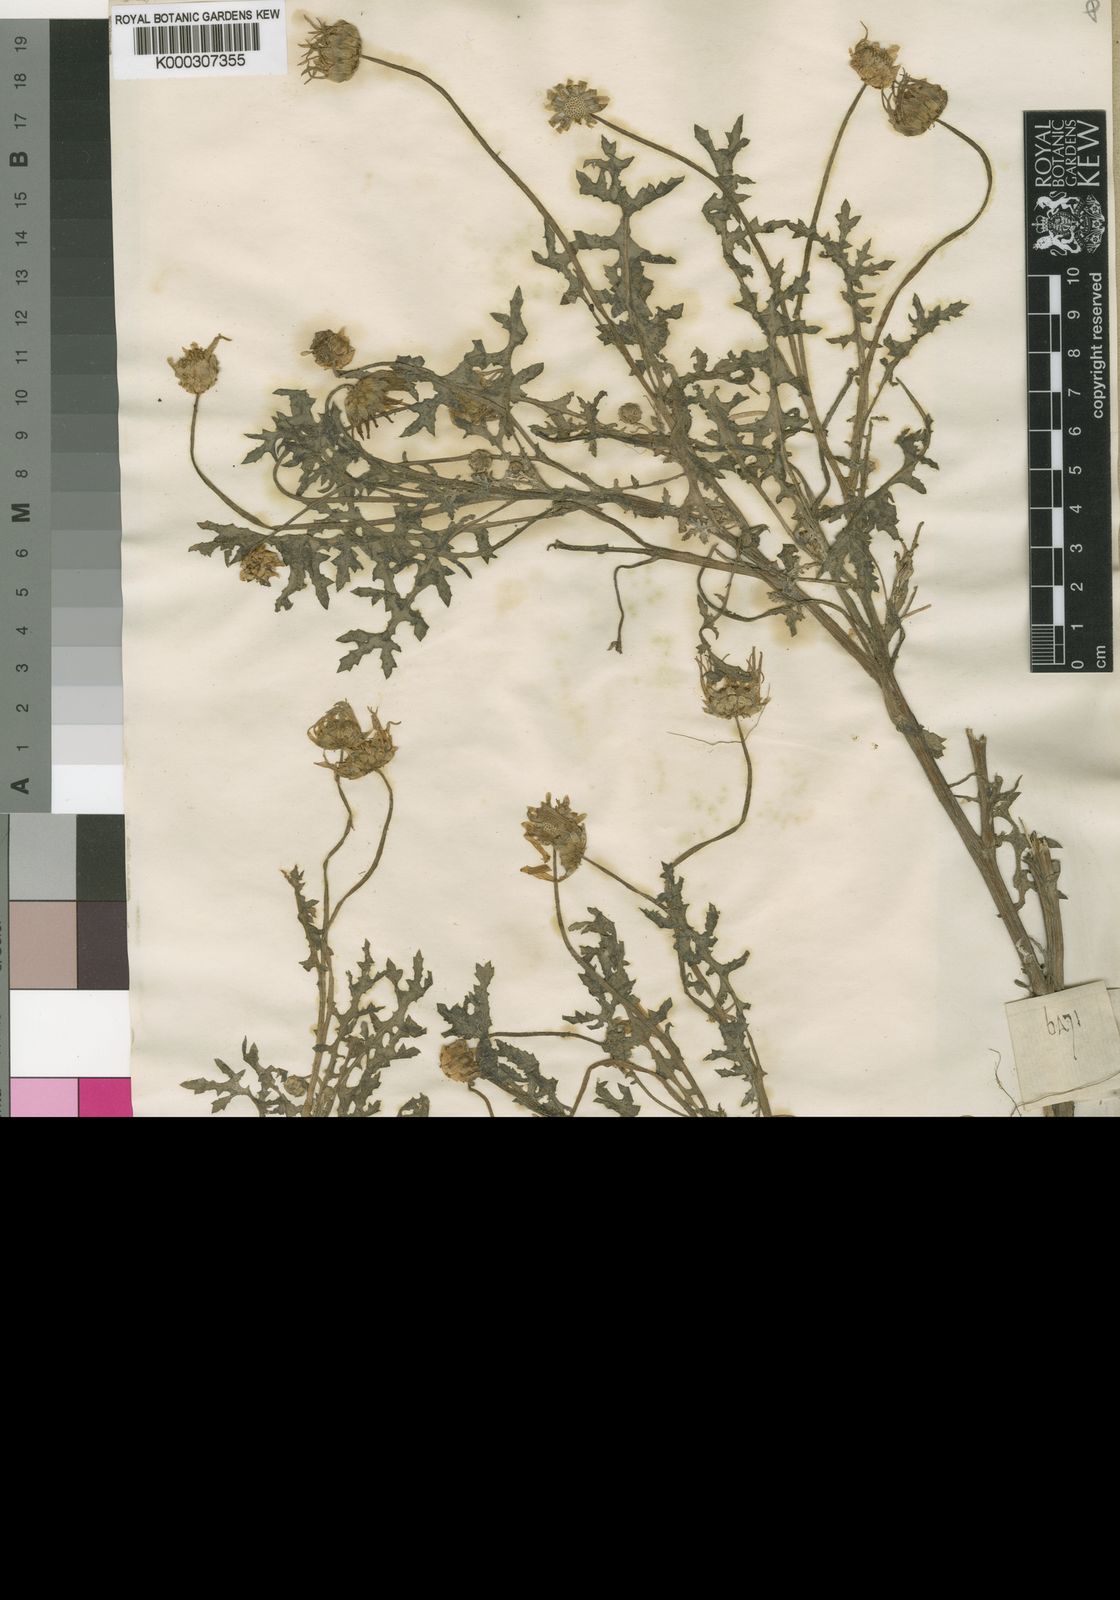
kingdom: Plantae
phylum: Tracheophyta
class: Magnoliopsida
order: Asterales
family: Asteraceae
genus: Arctotheca
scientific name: Arctotheca calendula
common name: Capeweed
